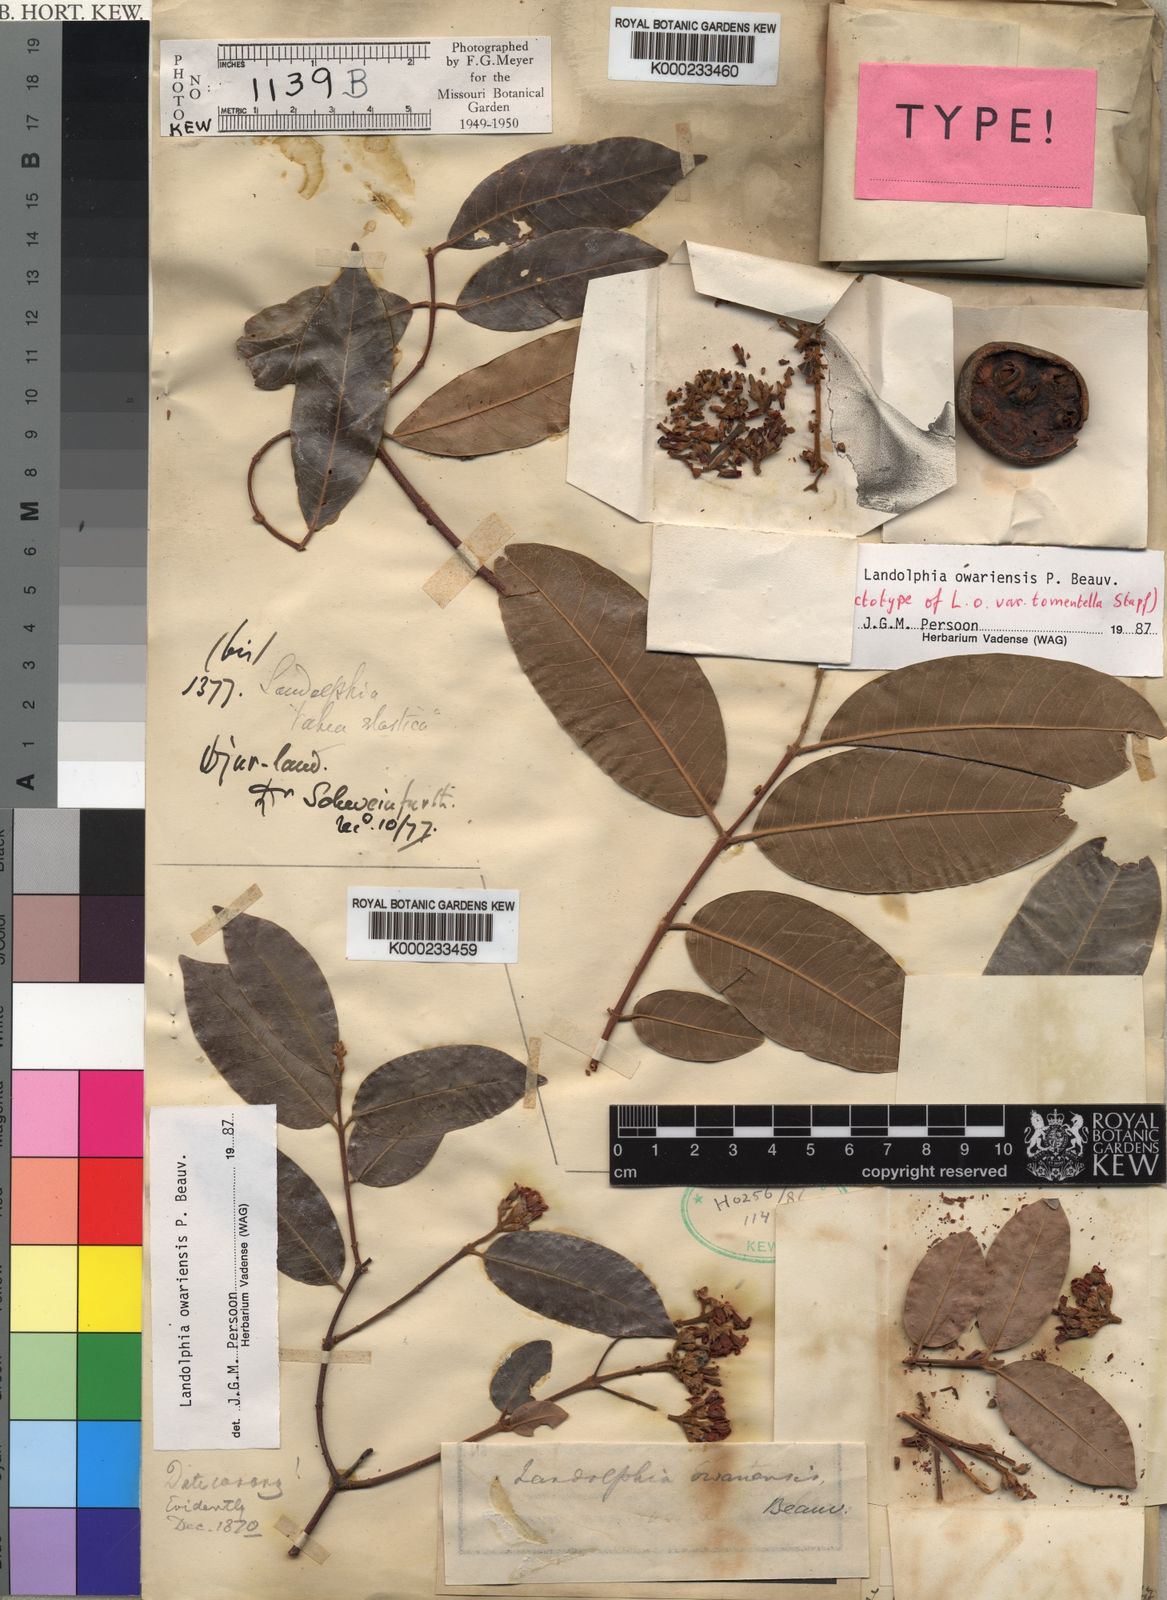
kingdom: Plantae
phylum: Tracheophyta
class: Magnoliopsida
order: Gentianales
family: Apocynaceae
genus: Landolphia
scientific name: Landolphia owariensis
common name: White-ball-rubber
